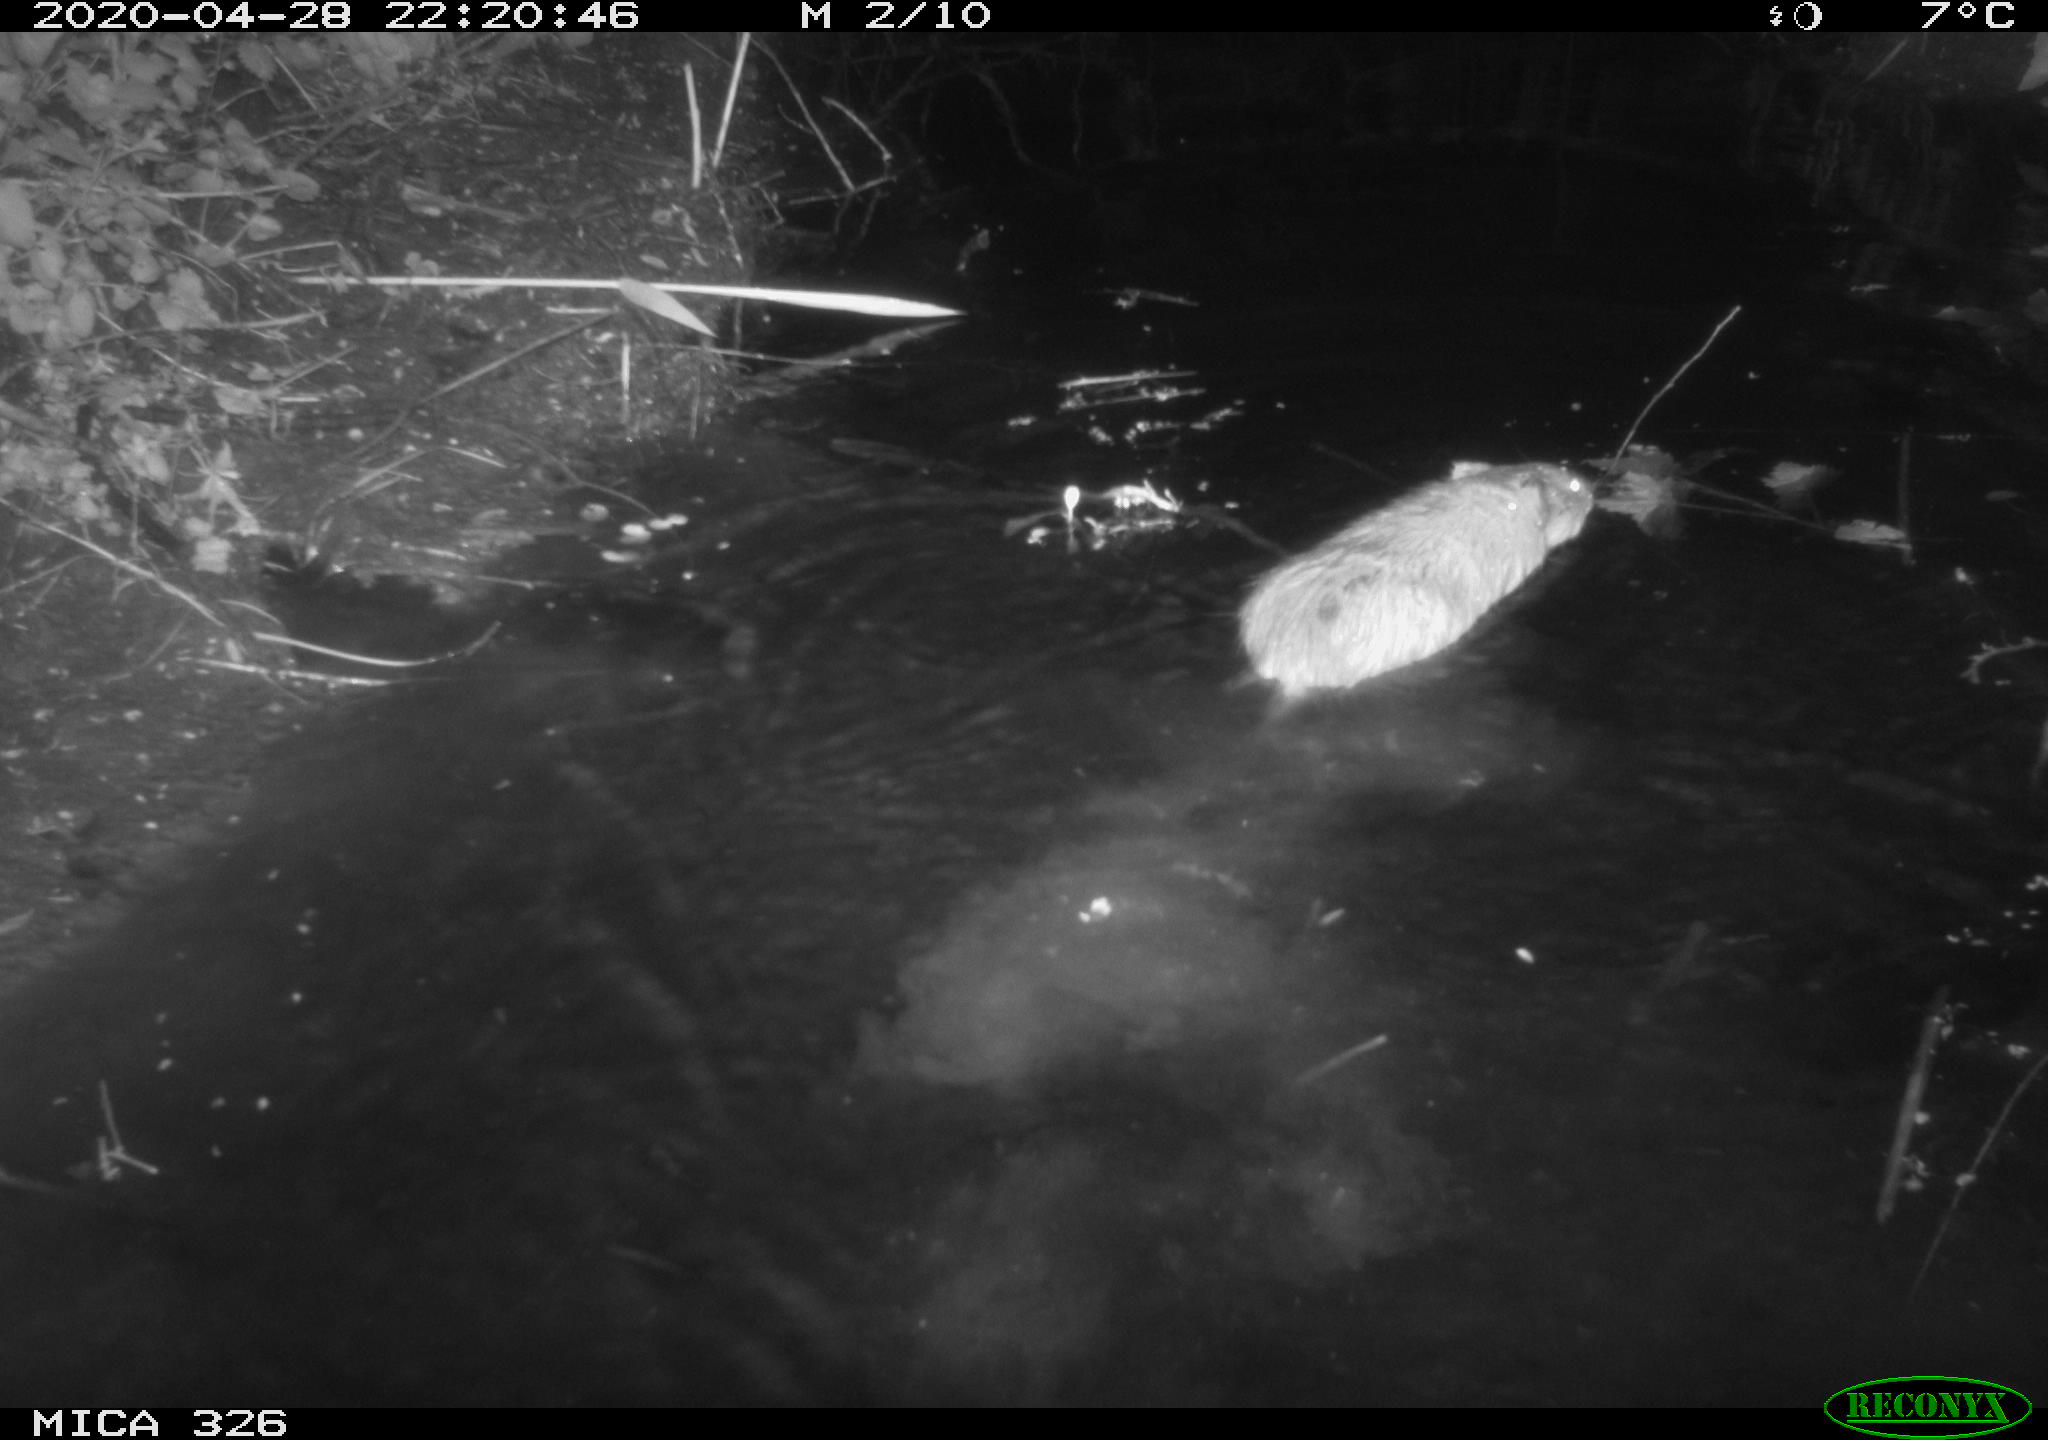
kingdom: Animalia
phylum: Chordata
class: Mammalia
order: Rodentia
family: Myocastoridae
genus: Myocastor
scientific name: Myocastor coypus
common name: Coypu
